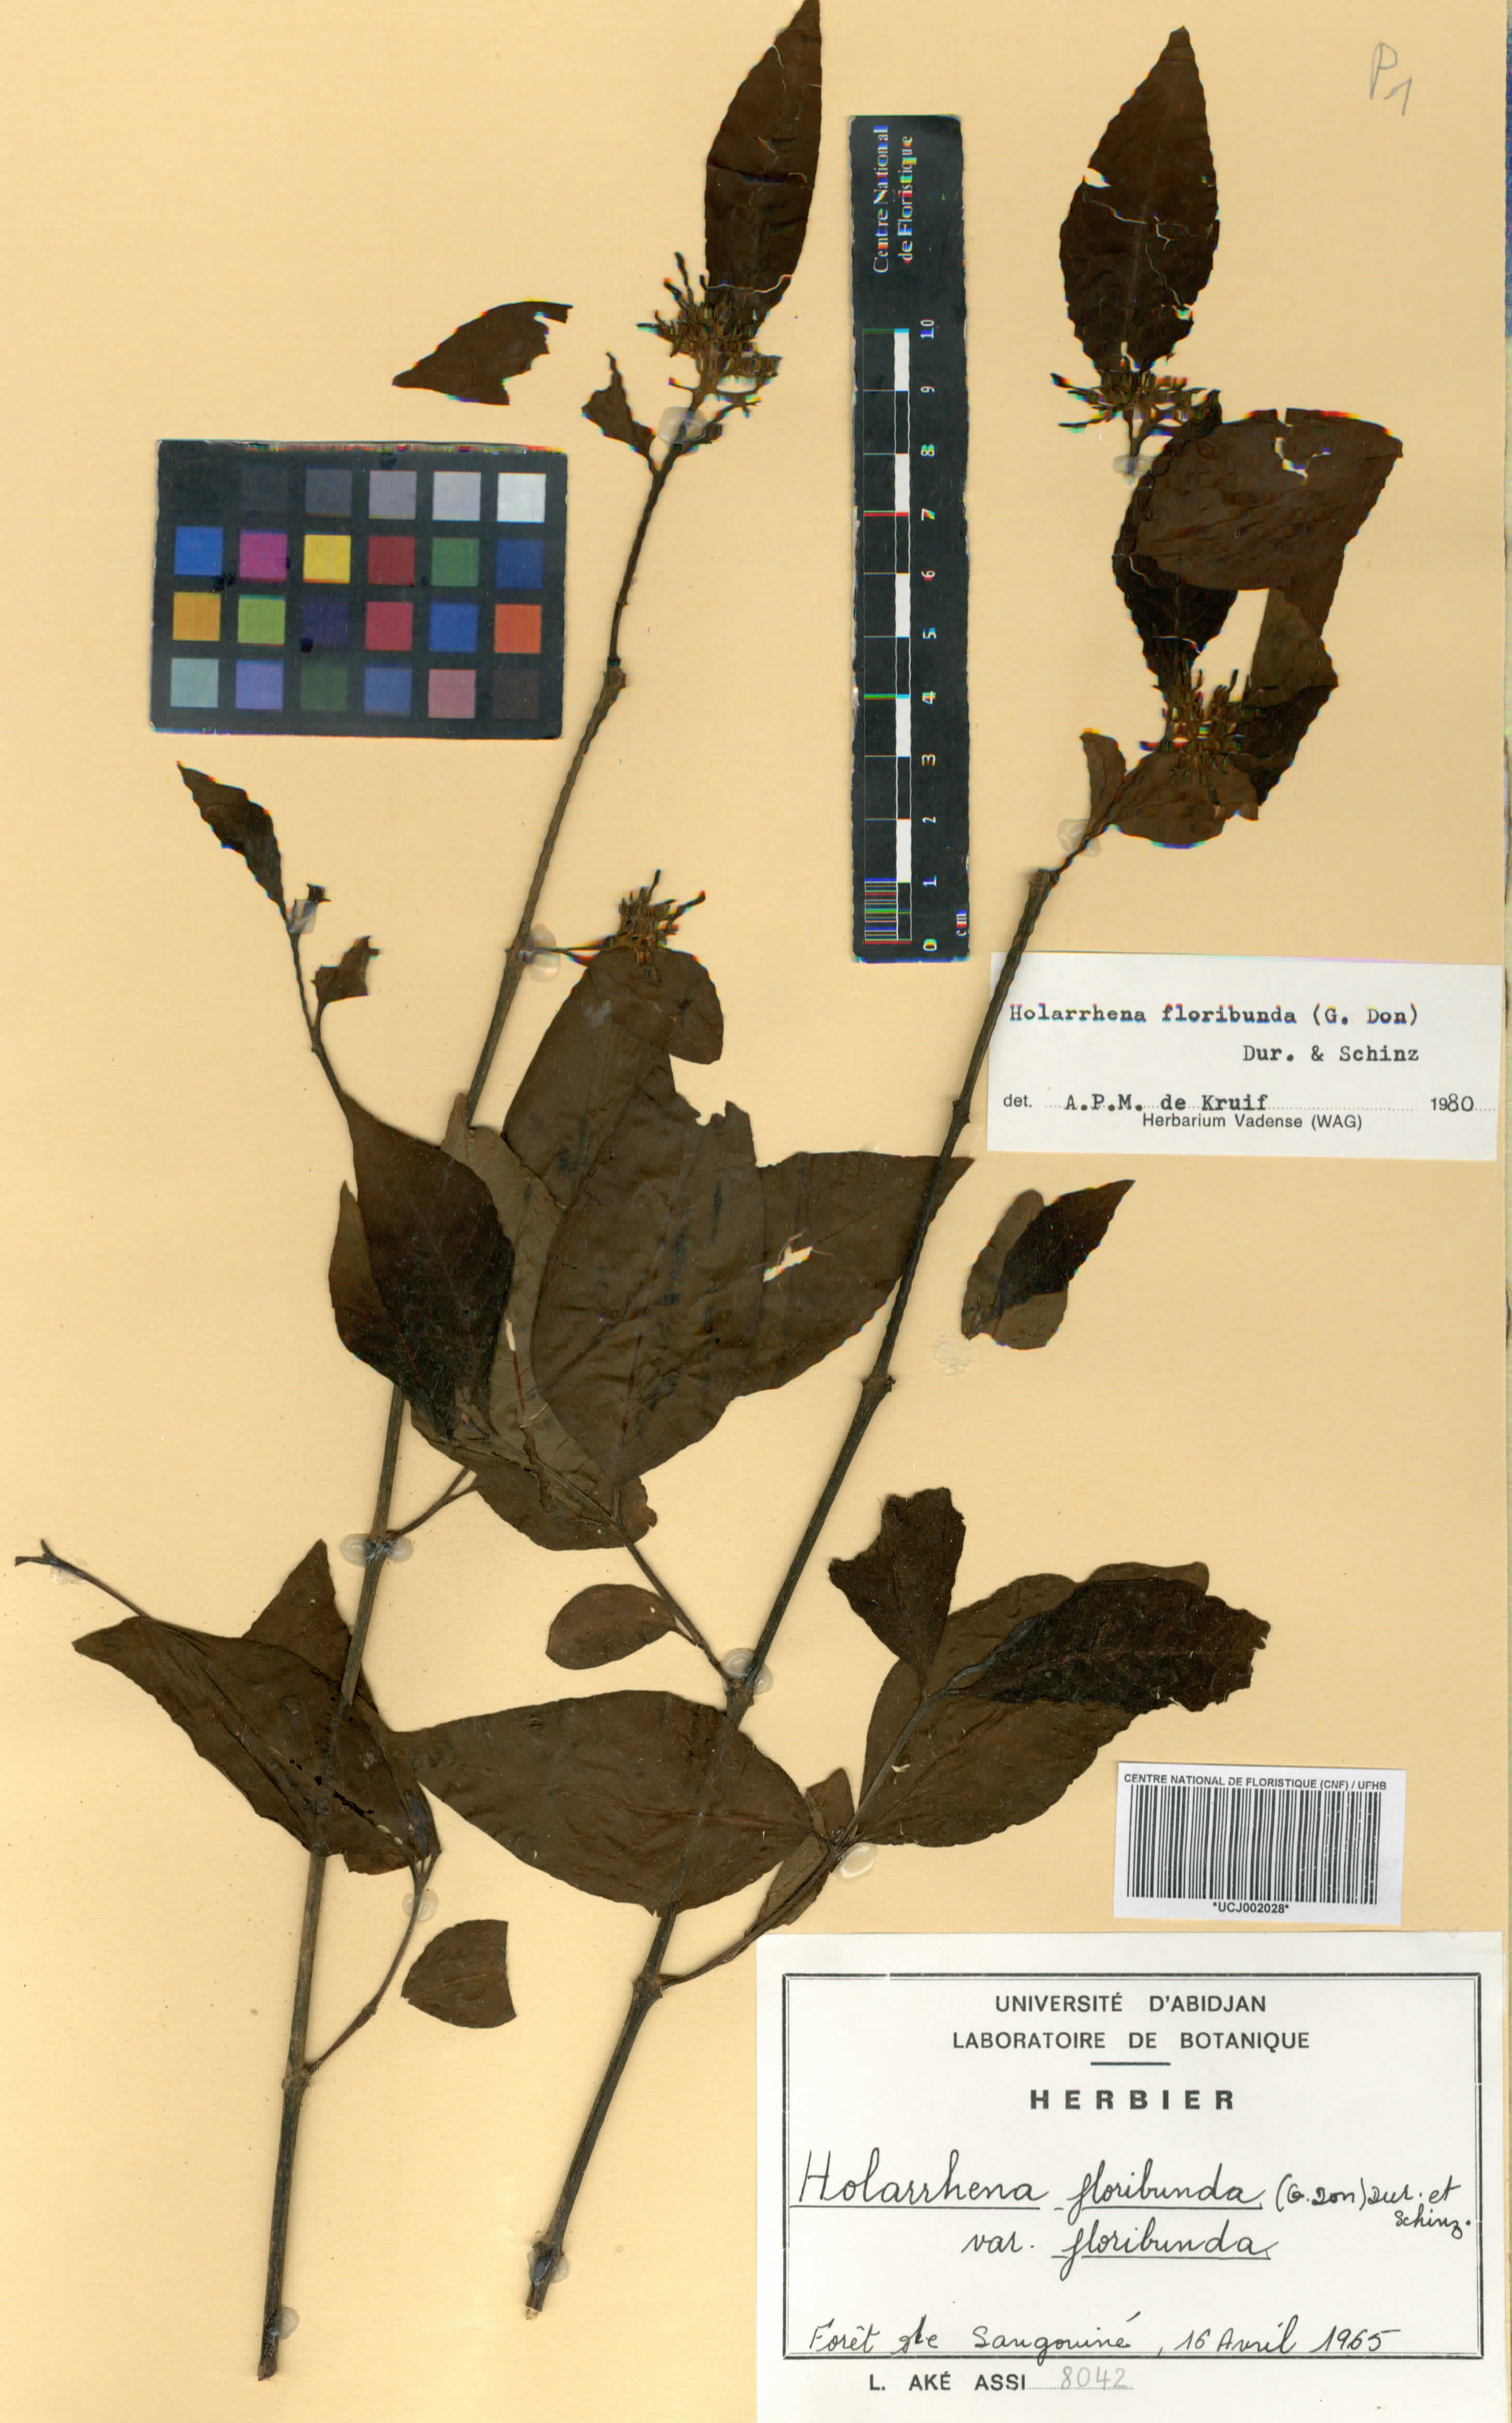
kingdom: Plantae
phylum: Tracheophyta
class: Magnoliopsida
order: Gentianales
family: Apocynaceae
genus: Holarrhena
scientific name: Holarrhena floribunda
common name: Kurchibark
